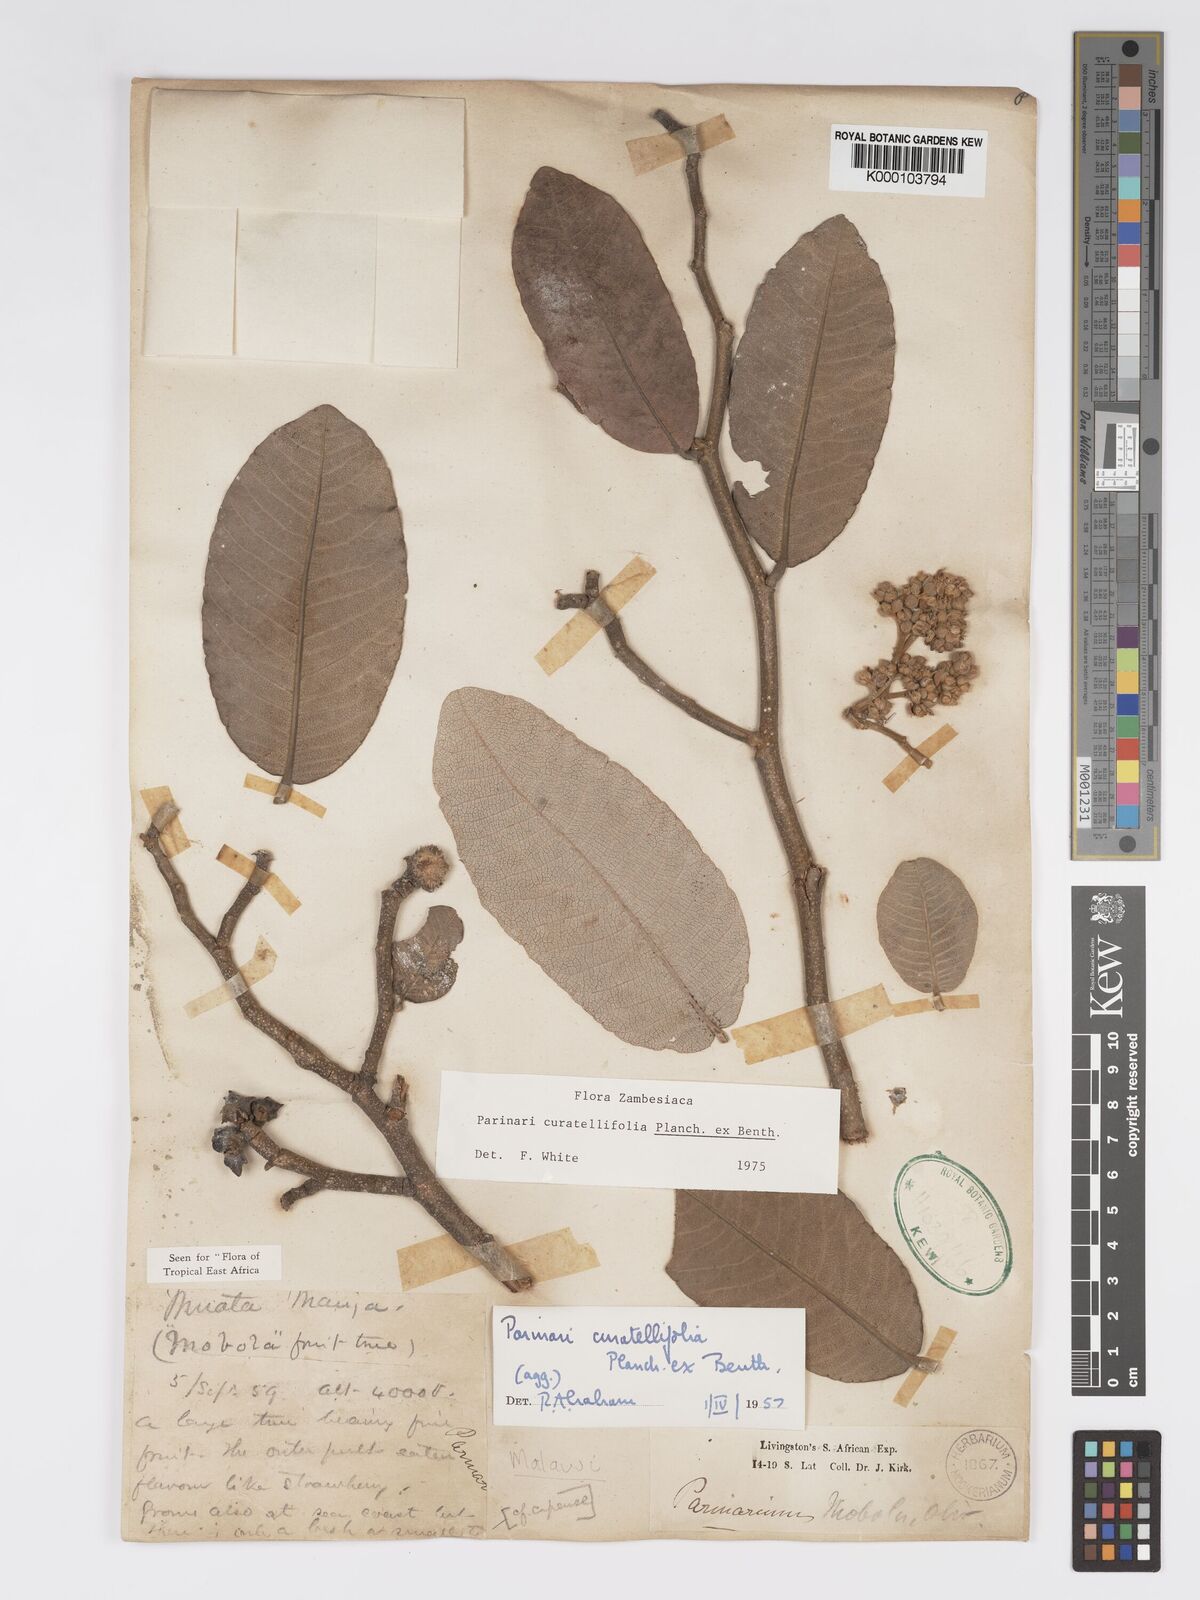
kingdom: Plantae
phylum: Tracheophyta
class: Magnoliopsida
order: Malpighiales
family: Chrysobalanaceae
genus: Parinari
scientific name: Parinari curatellifolia
